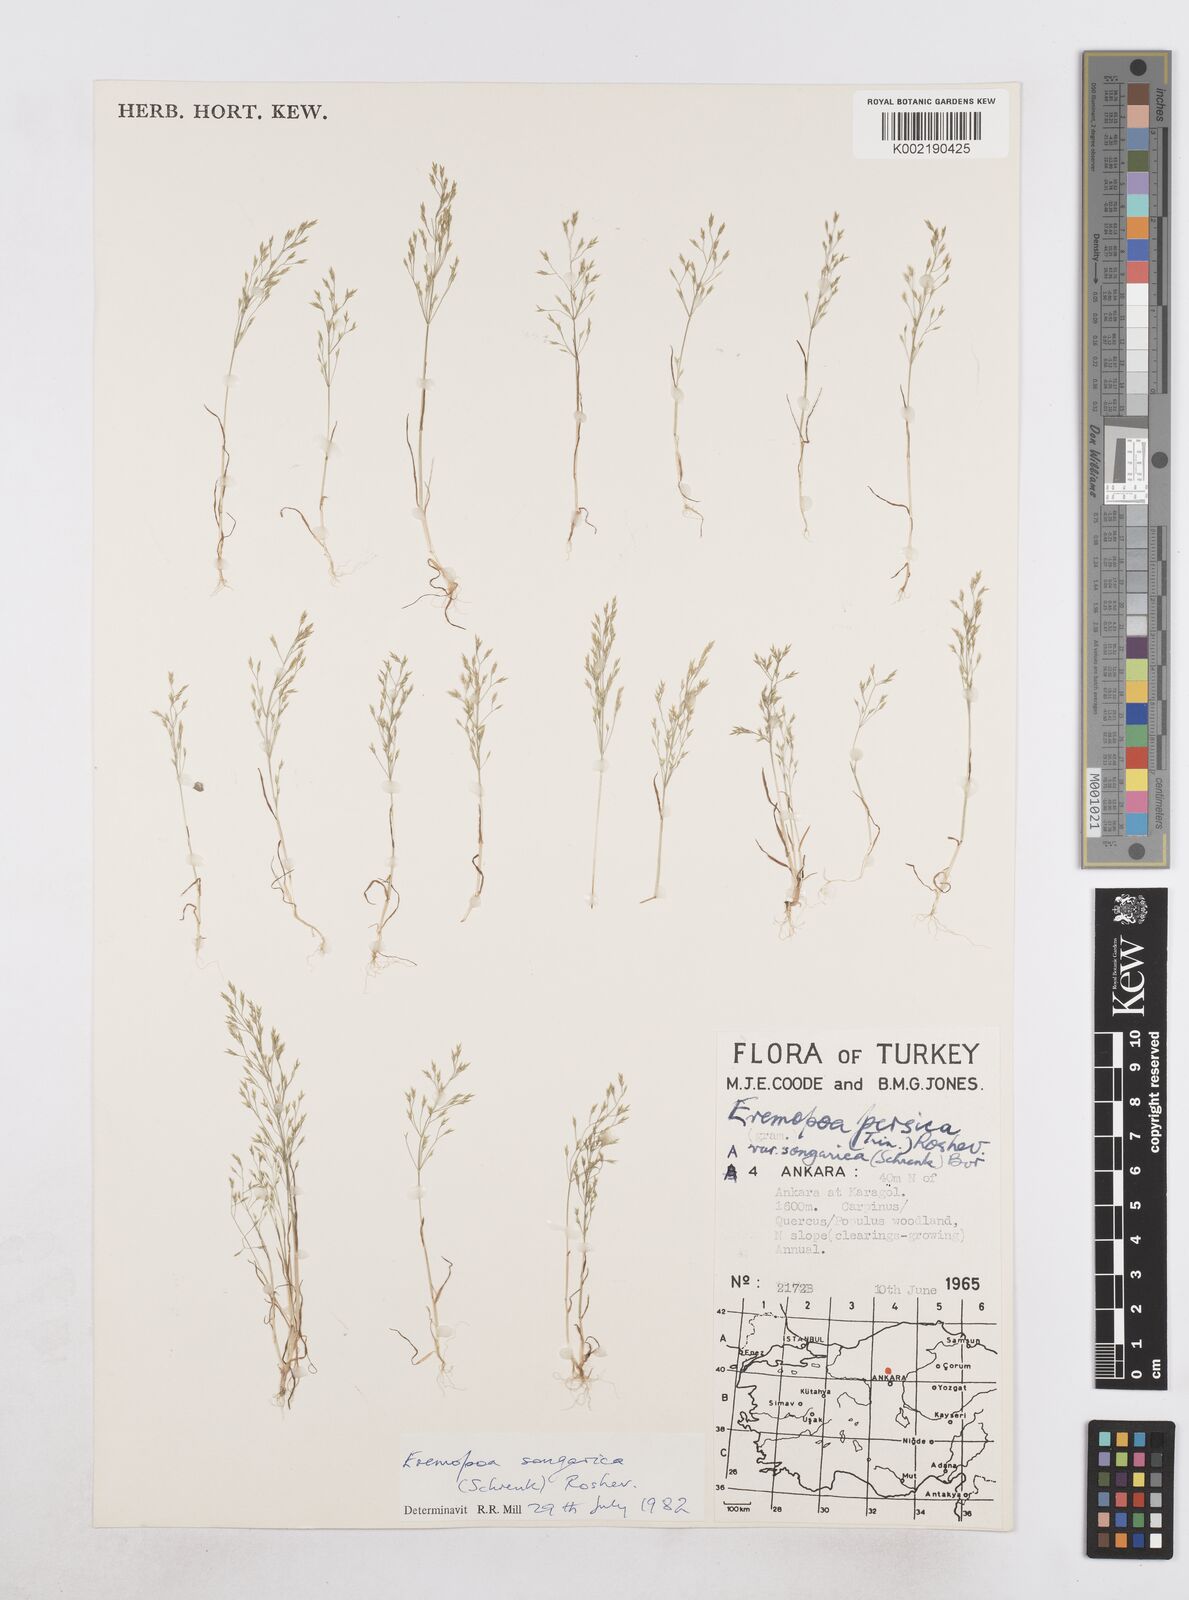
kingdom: Plantae
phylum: Tracheophyta
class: Liliopsida
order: Poales
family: Poaceae
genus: Poa
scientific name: Poa diaphora
